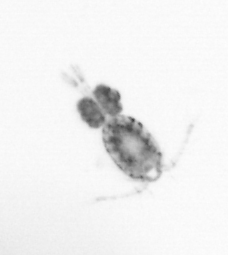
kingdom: Animalia
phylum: Arthropoda
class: Copepoda
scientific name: Copepoda
